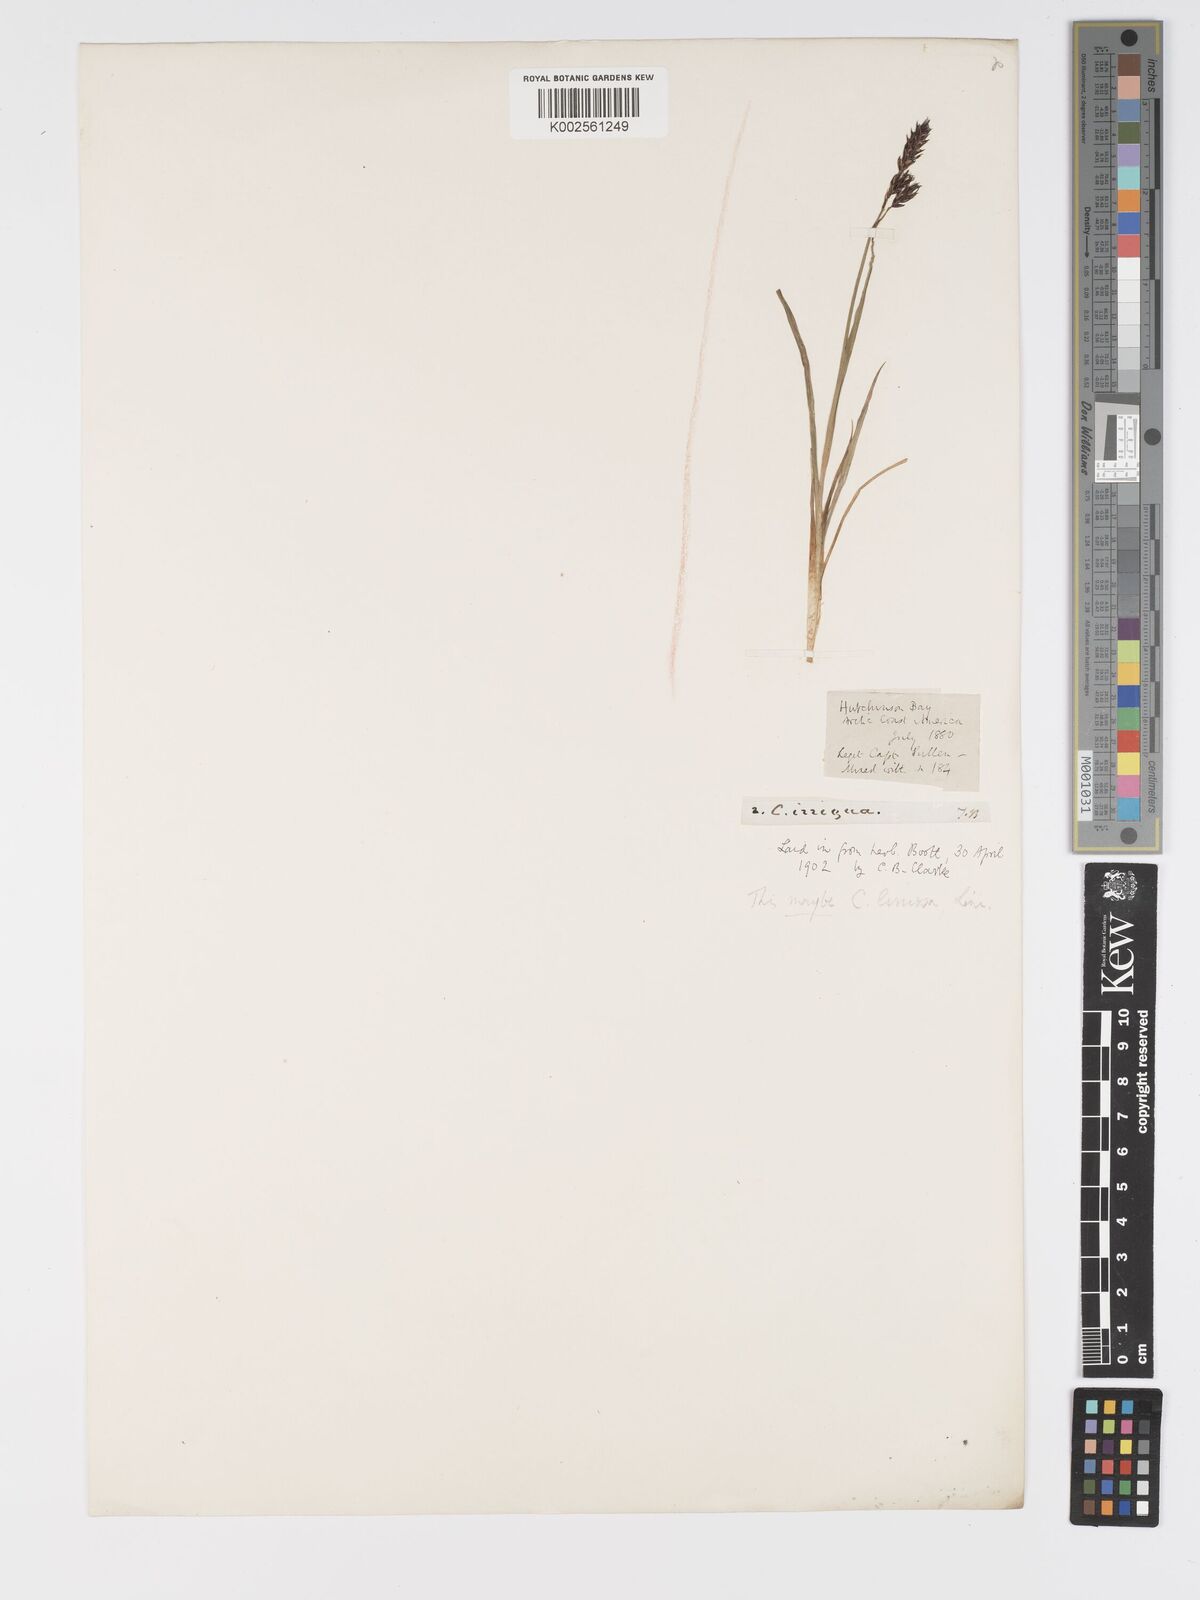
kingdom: Plantae
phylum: Tracheophyta
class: Liliopsida
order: Poales
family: Cyperaceae
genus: Carex
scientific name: Carex limosa
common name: Bog sedge
